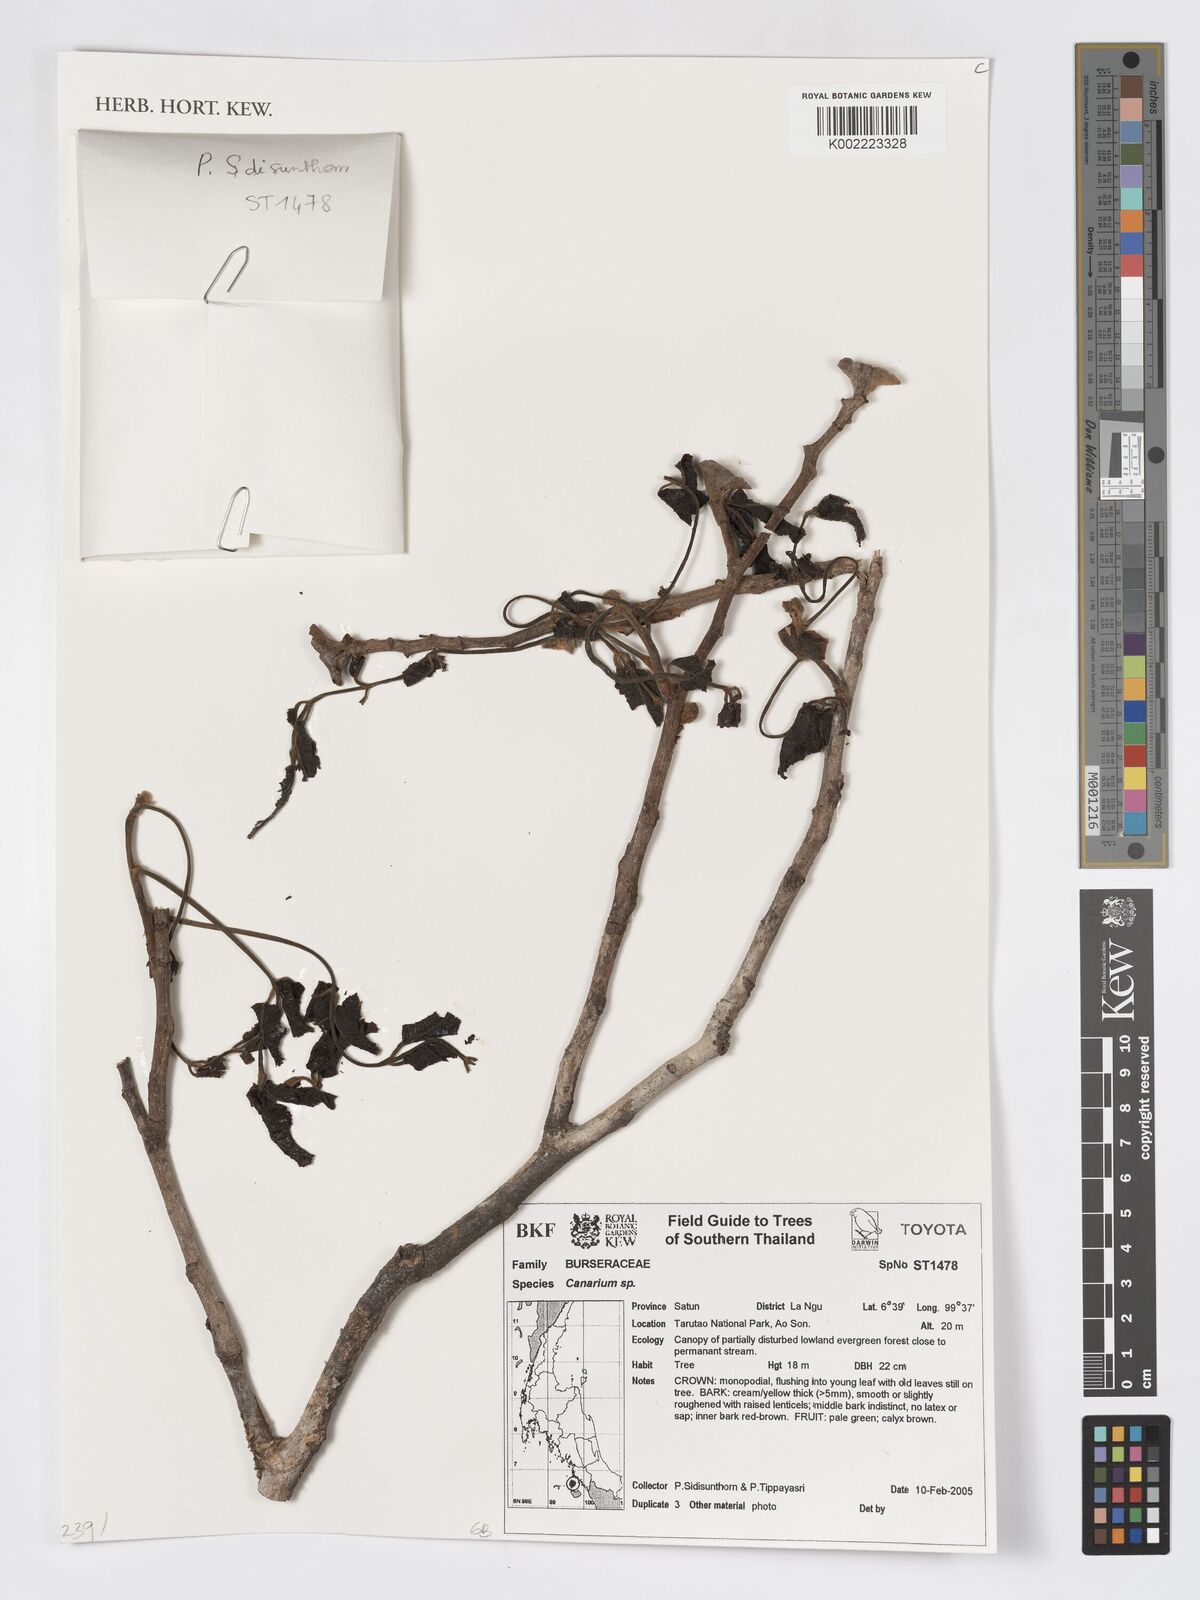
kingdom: Plantae
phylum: Tracheophyta
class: Magnoliopsida
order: Sapindales
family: Burseraceae
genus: Canarium
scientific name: Canarium
